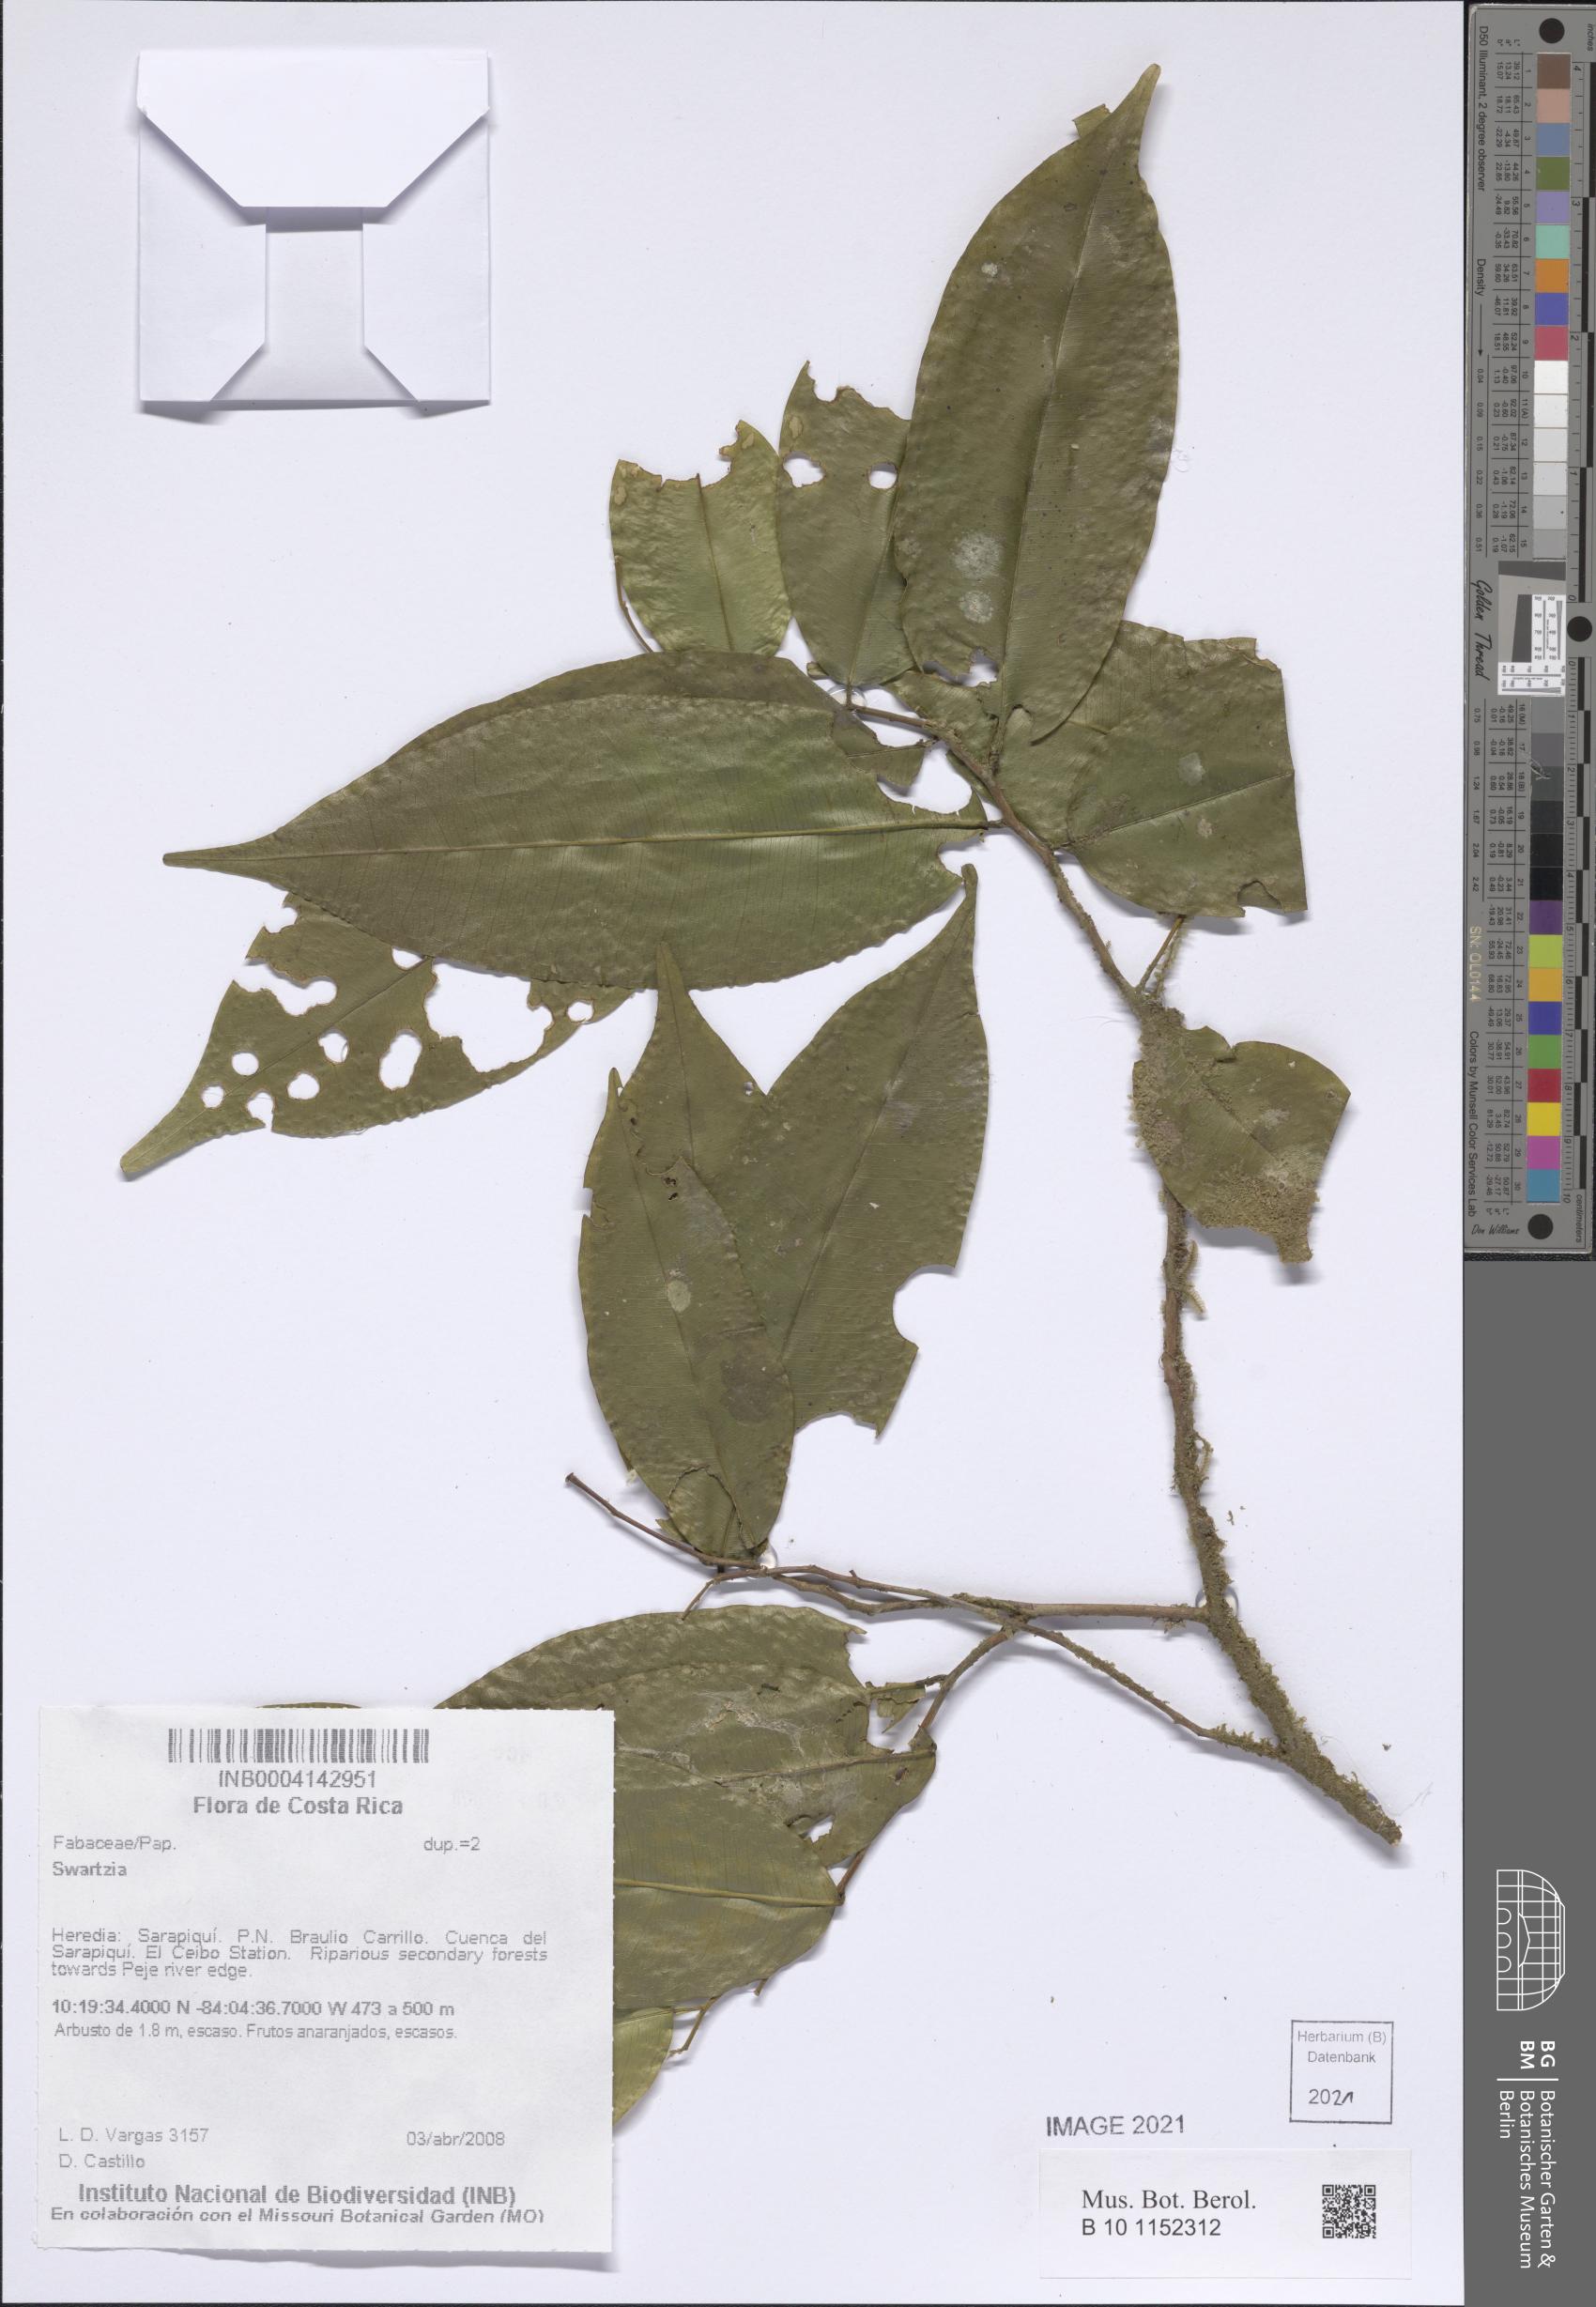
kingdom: Plantae
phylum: Tracheophyta
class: Magnoliopsida
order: Fabales
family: Fabaceae
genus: Swartzia
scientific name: Swartzia
